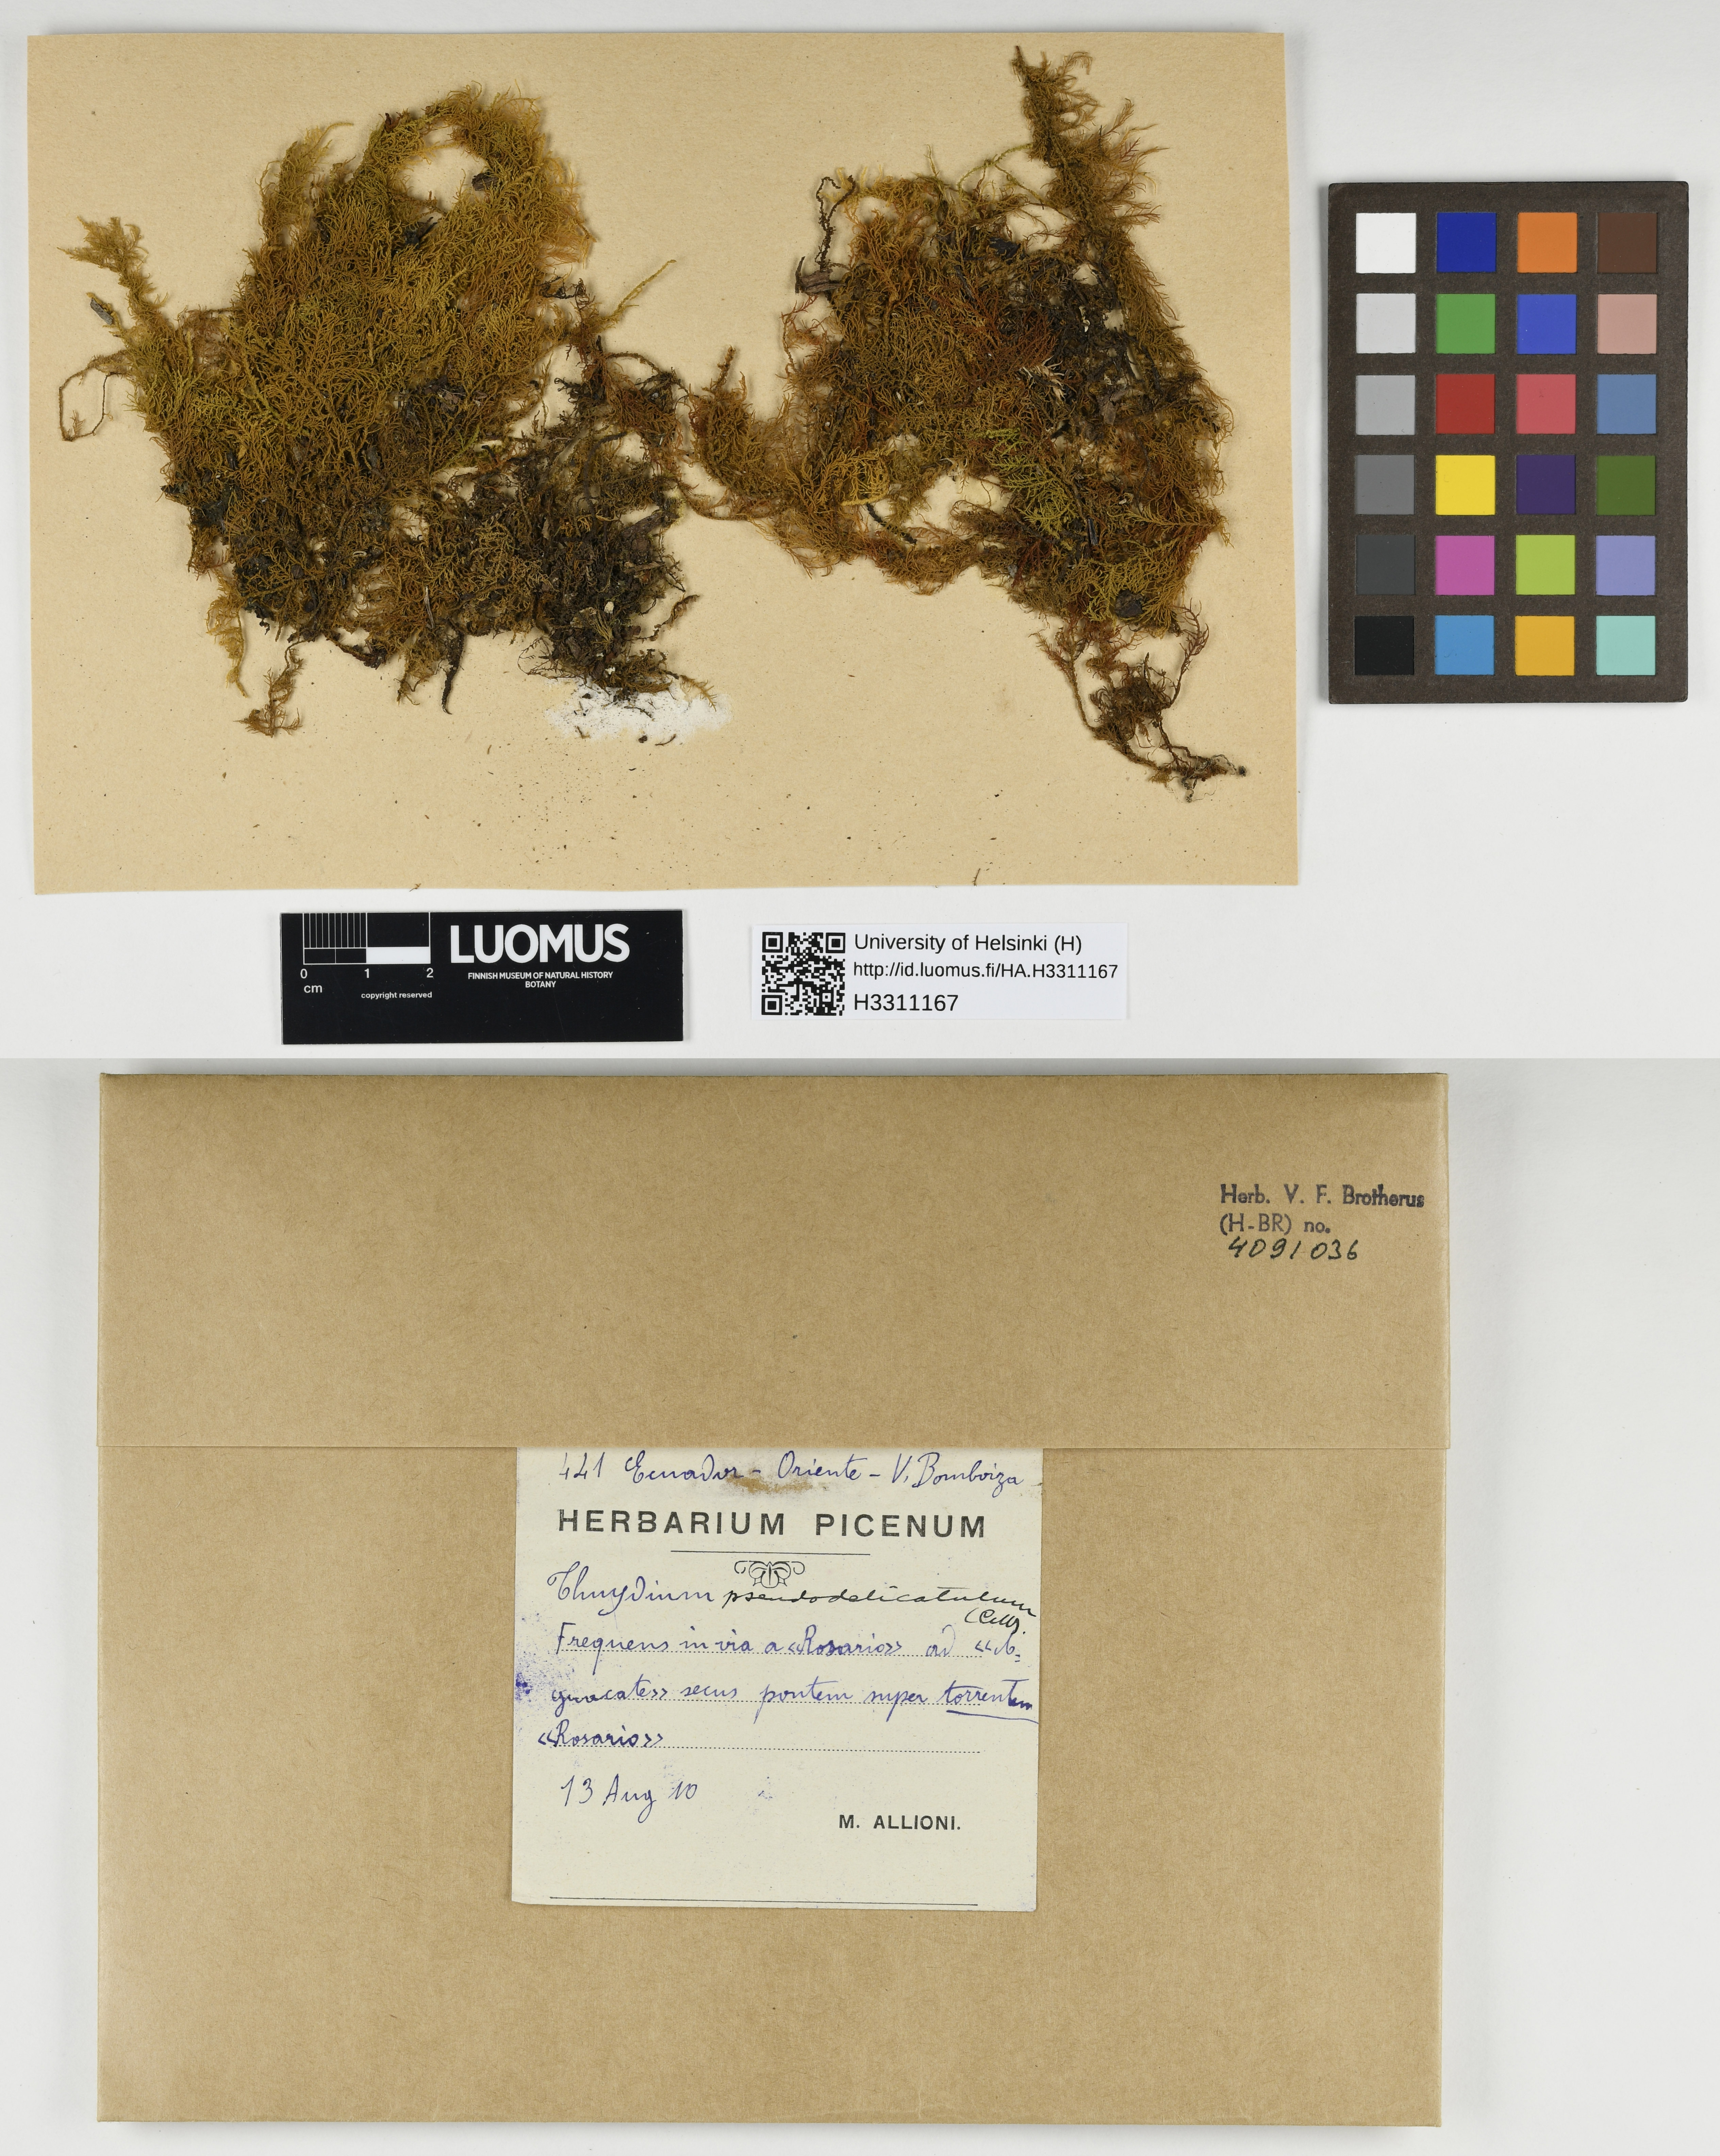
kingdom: Plantae
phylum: Bryophyta
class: Bryopsida
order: Hypnales
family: Thuidiaceae
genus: Thuidium
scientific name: Thuidium pseudodelicatulum
